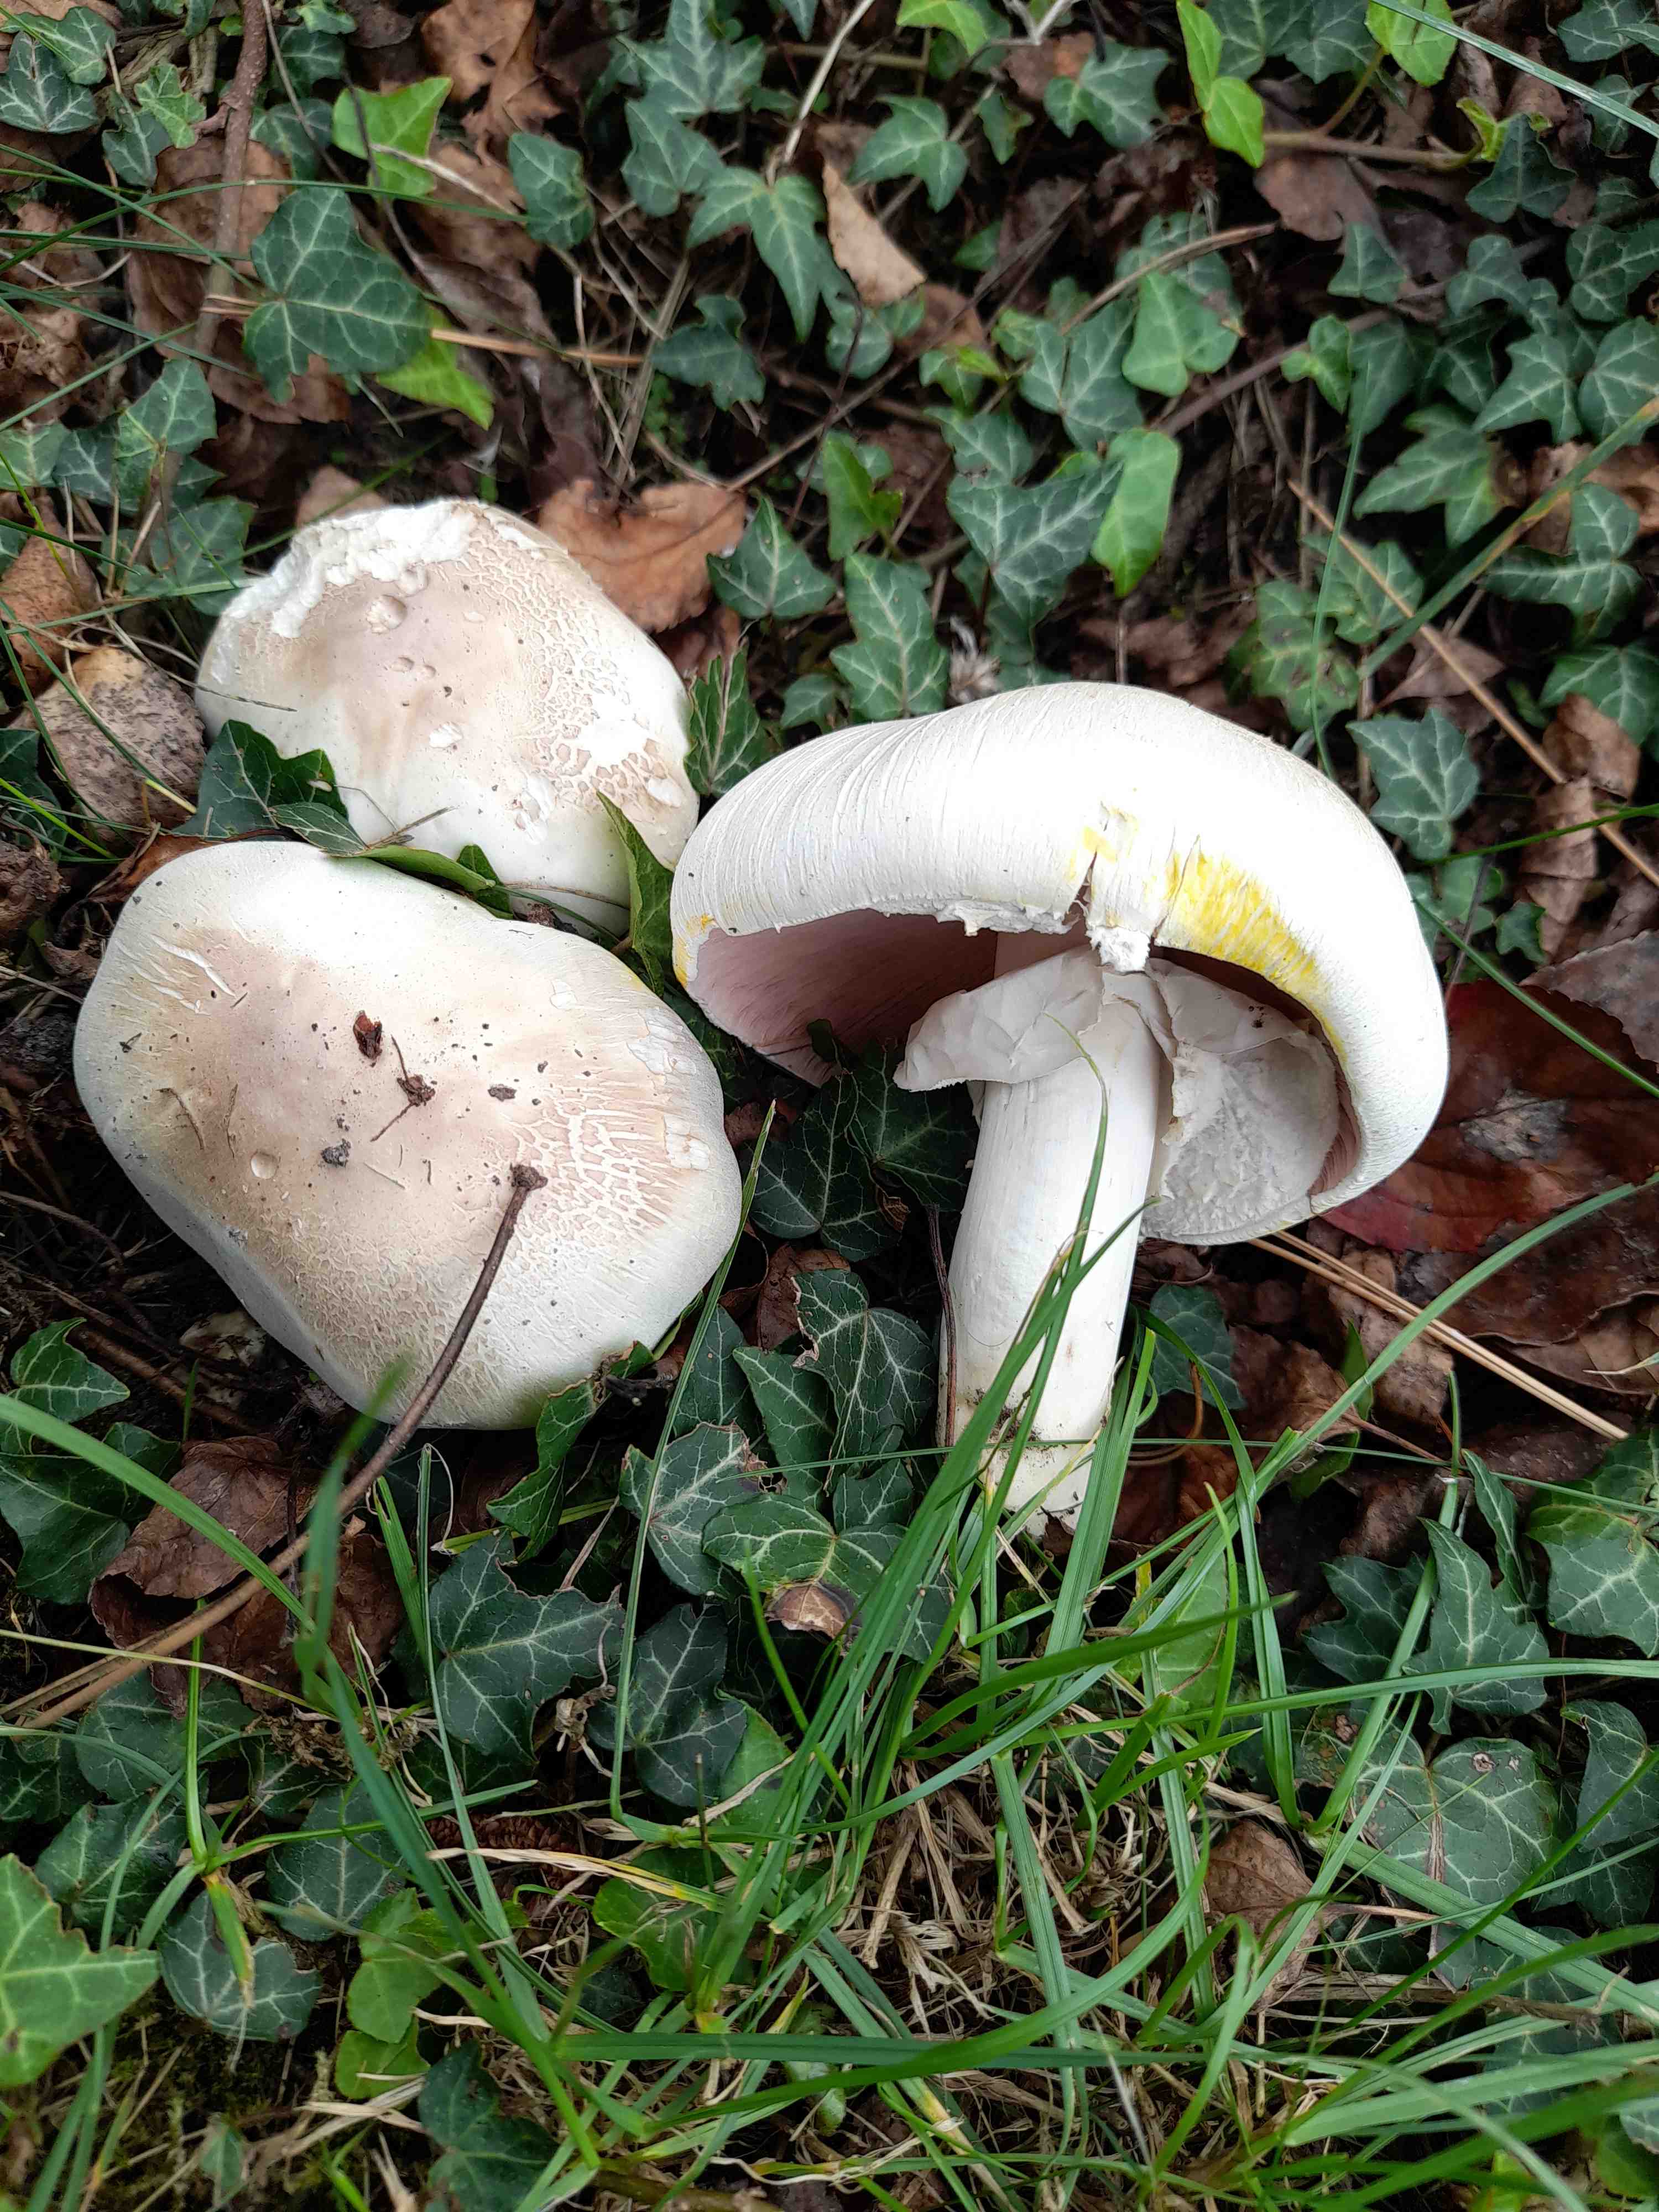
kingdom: Fungi
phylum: Basidiomycota
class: Agaricomycetes
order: Agaricales
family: Agaricaceae
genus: Agaricus
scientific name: Agaricus xanthodermus
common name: karbol-champignon
